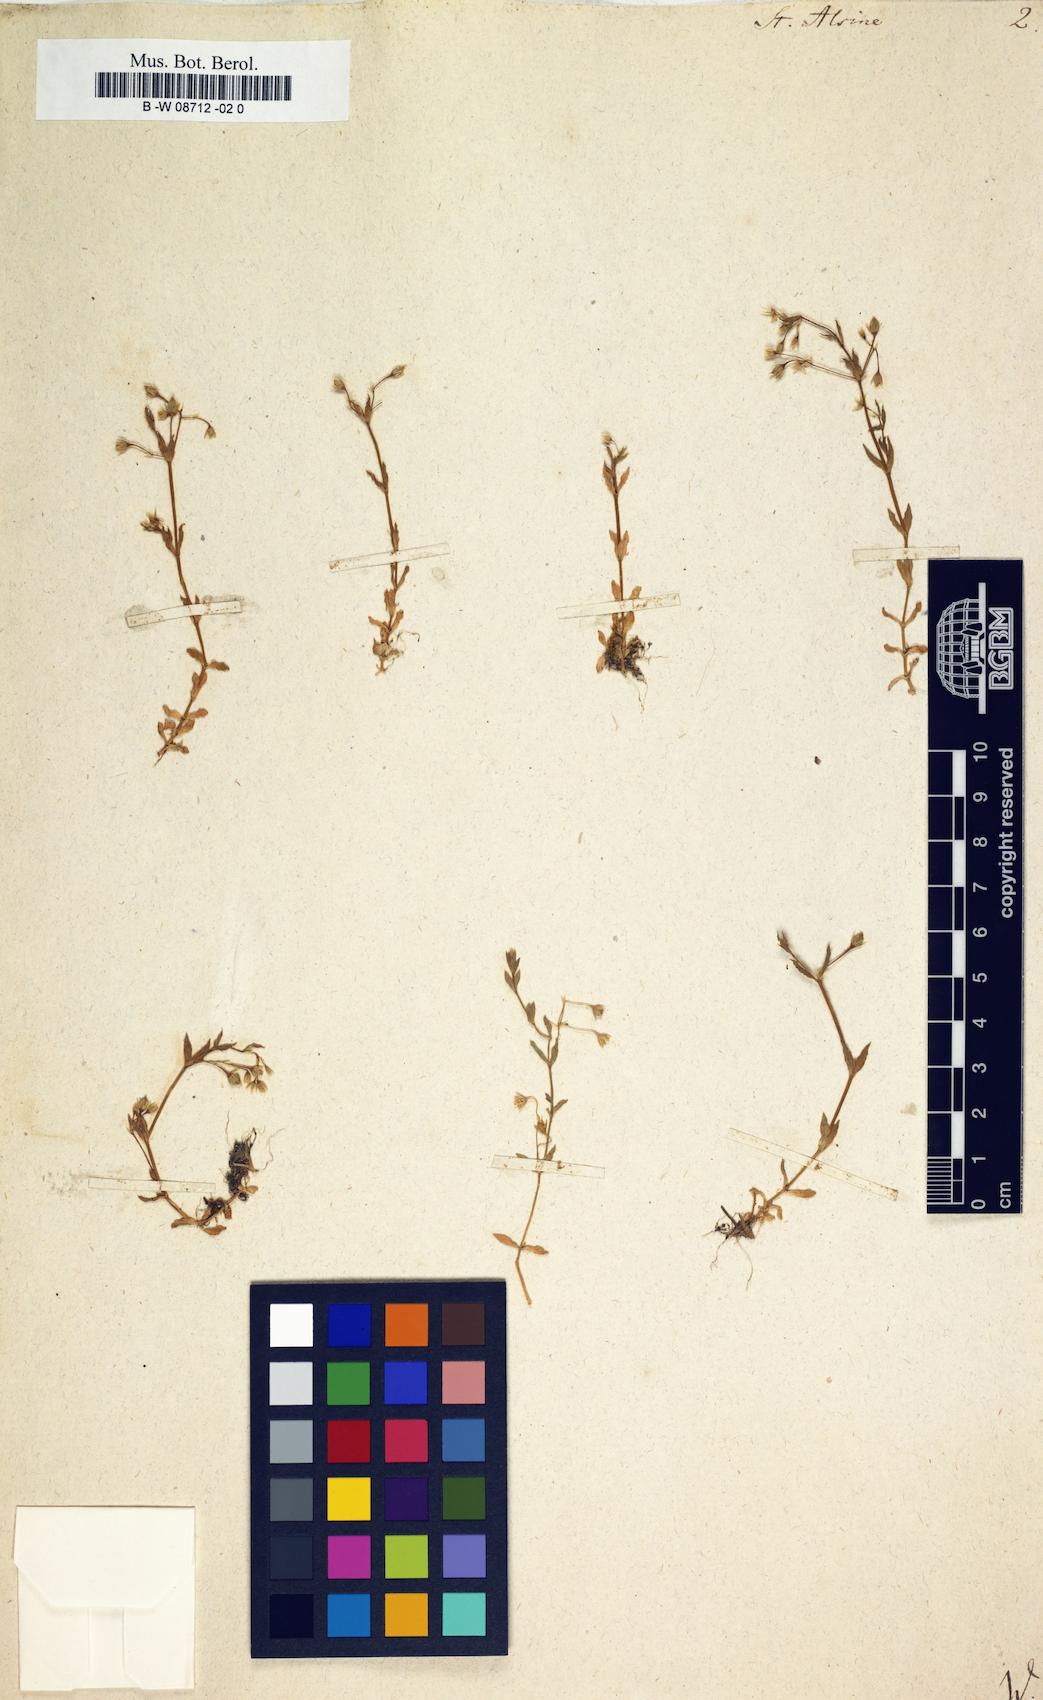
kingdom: Plantae
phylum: Tracheophyta
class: Magnoliopsida
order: Caryophyllales
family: Caryophyllaceae
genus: Stellaria
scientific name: Stellaria alsine
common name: Bog stitchwort
